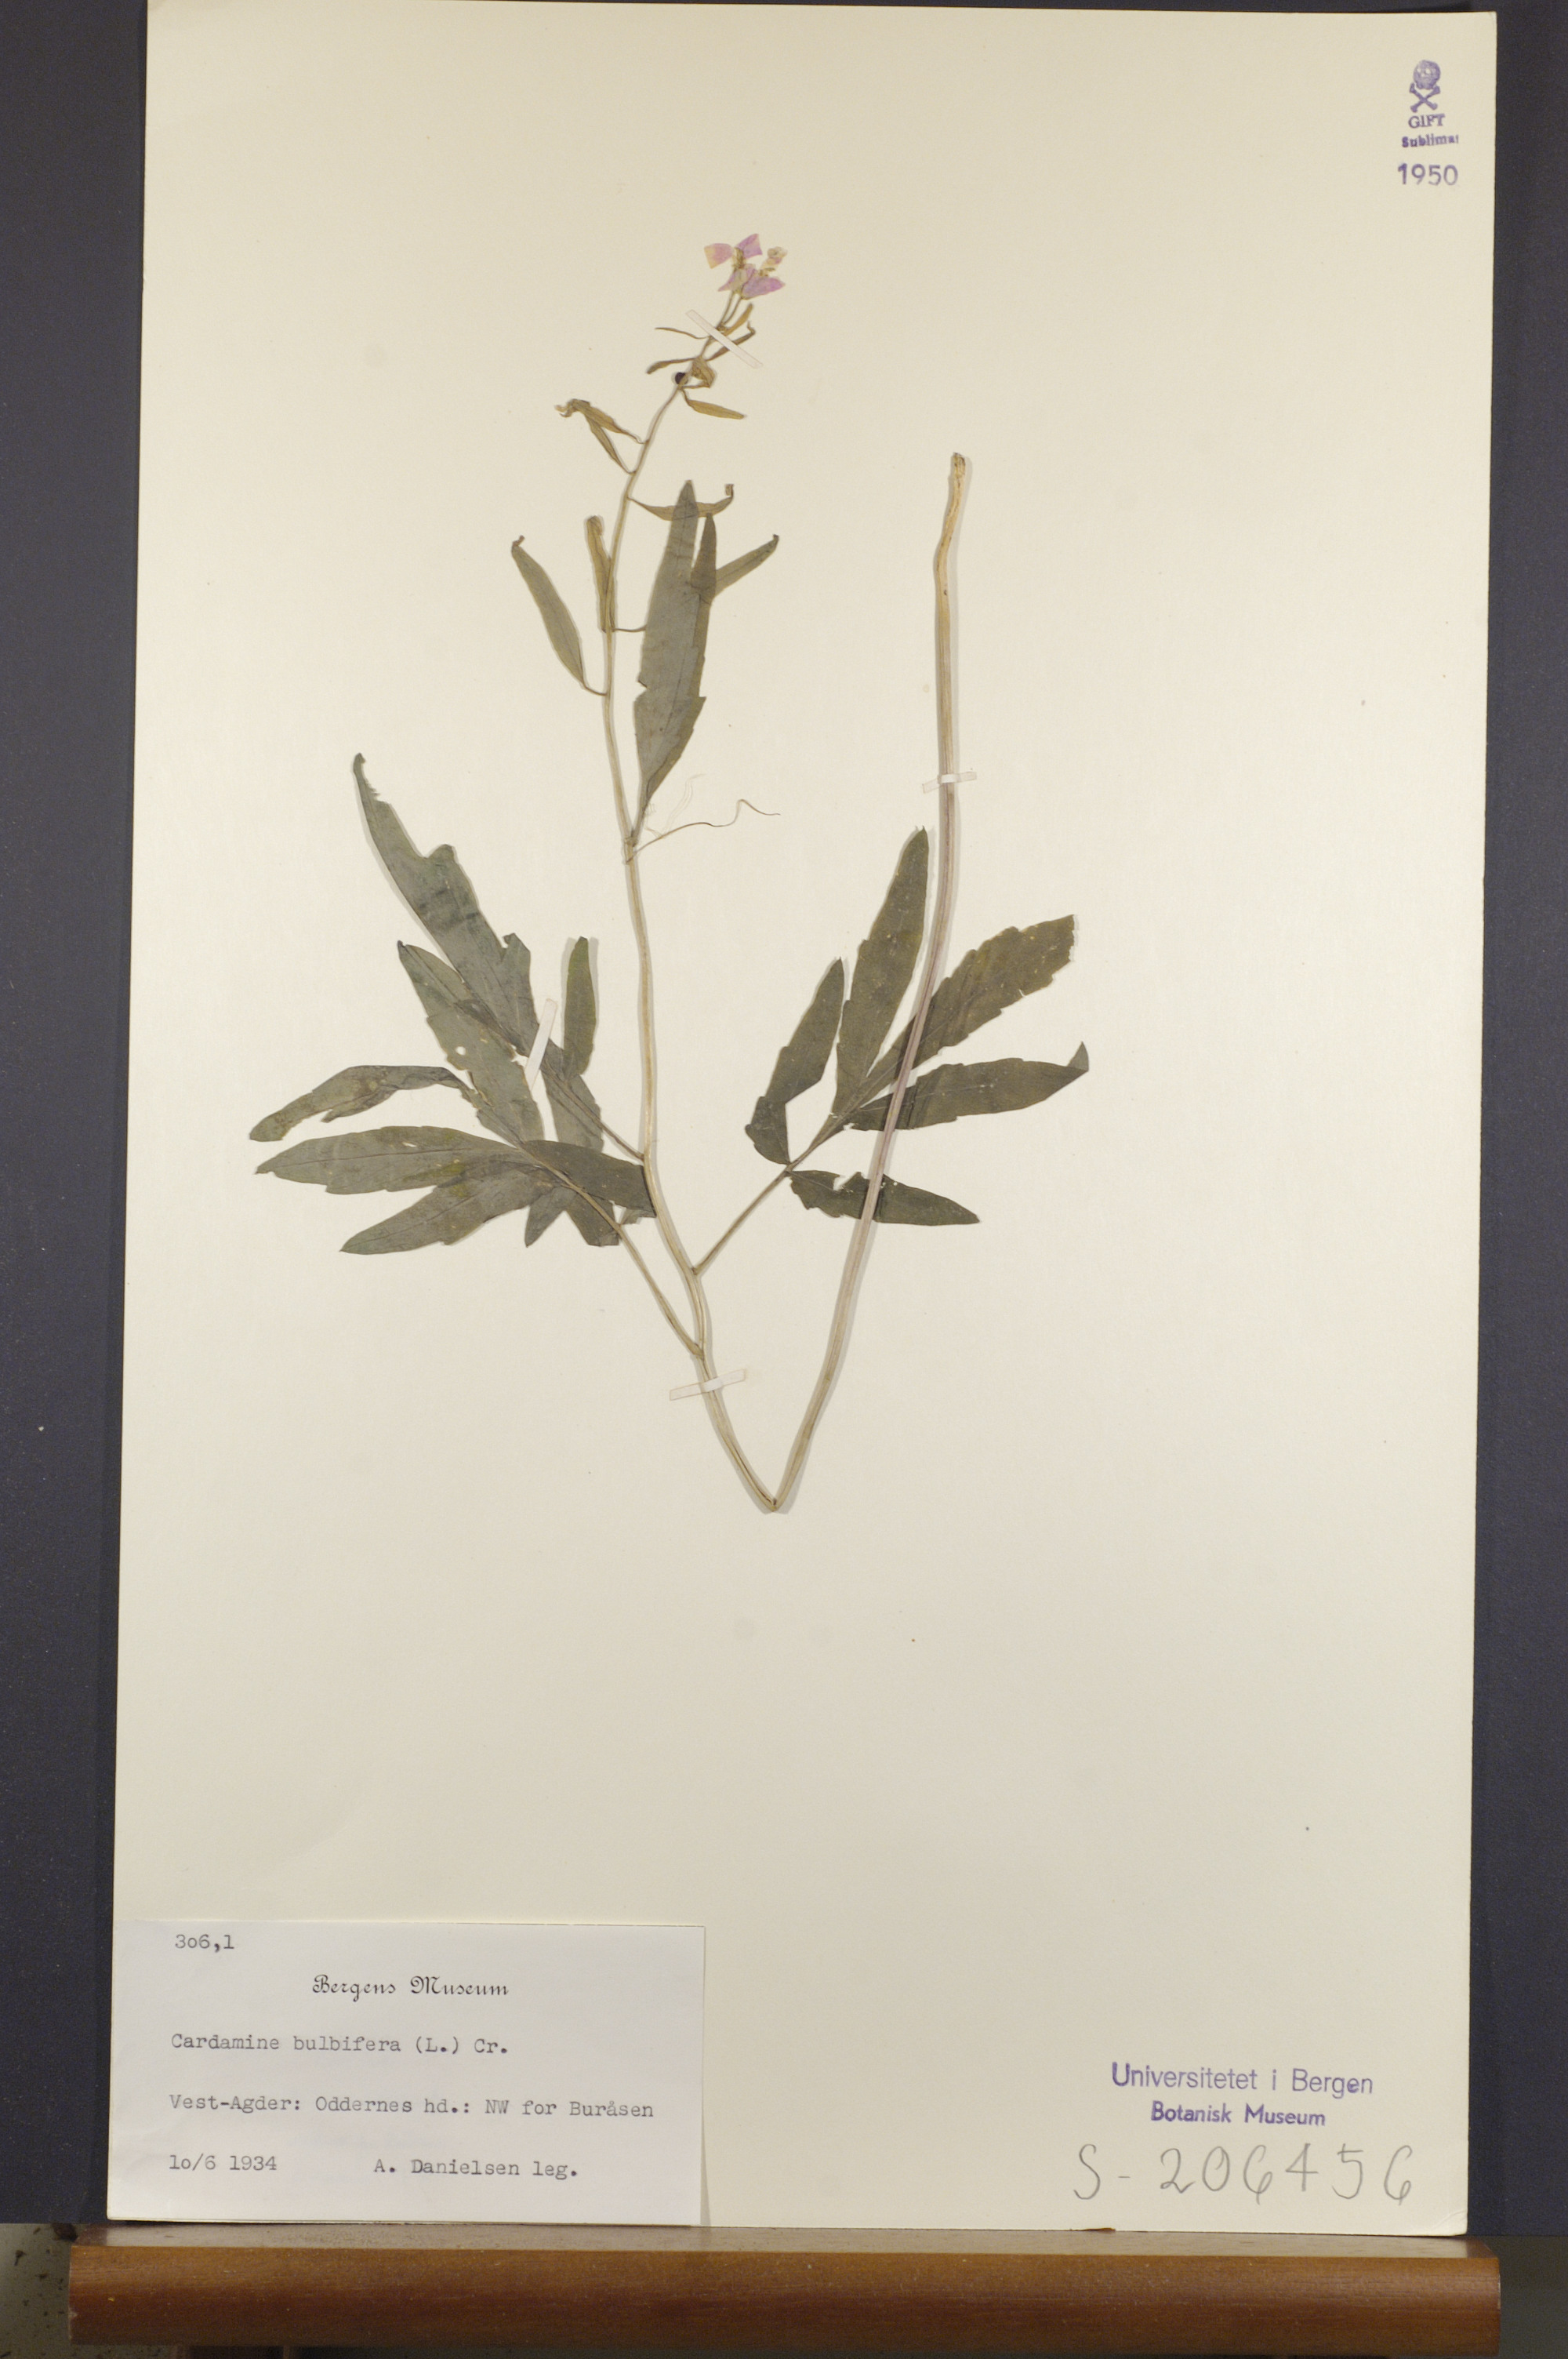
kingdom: Plantae
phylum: Tracheophyta
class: Magnoliopsida
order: Brassicales
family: Brassicaceae
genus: Cardamine
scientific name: Cardamine bulbifera
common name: Coralroot bittercress
